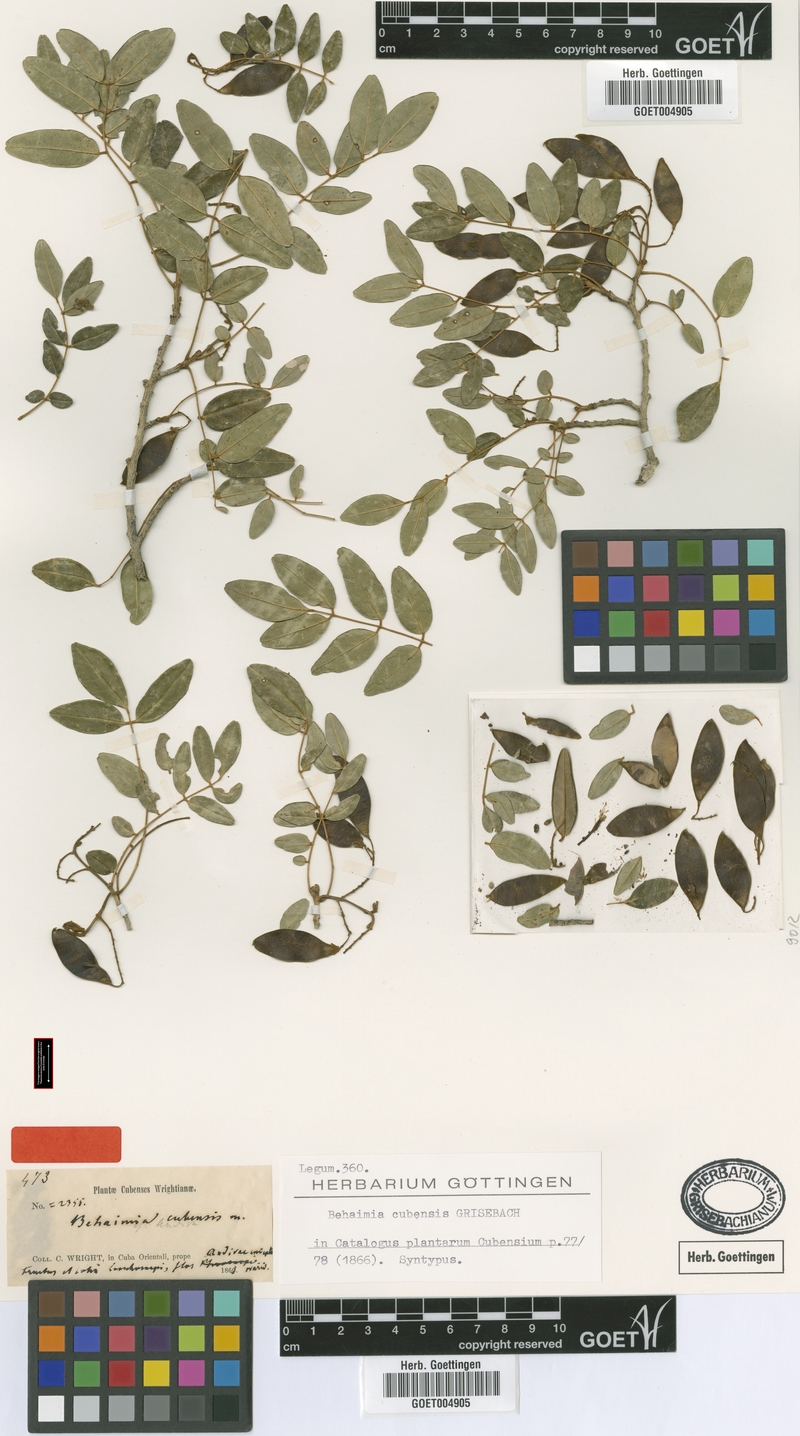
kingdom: Plantae
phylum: Tracheophyta
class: Magnoliopsida
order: Fabales
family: Fabaceae
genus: Behaimia
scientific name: Behaimia cubensis
